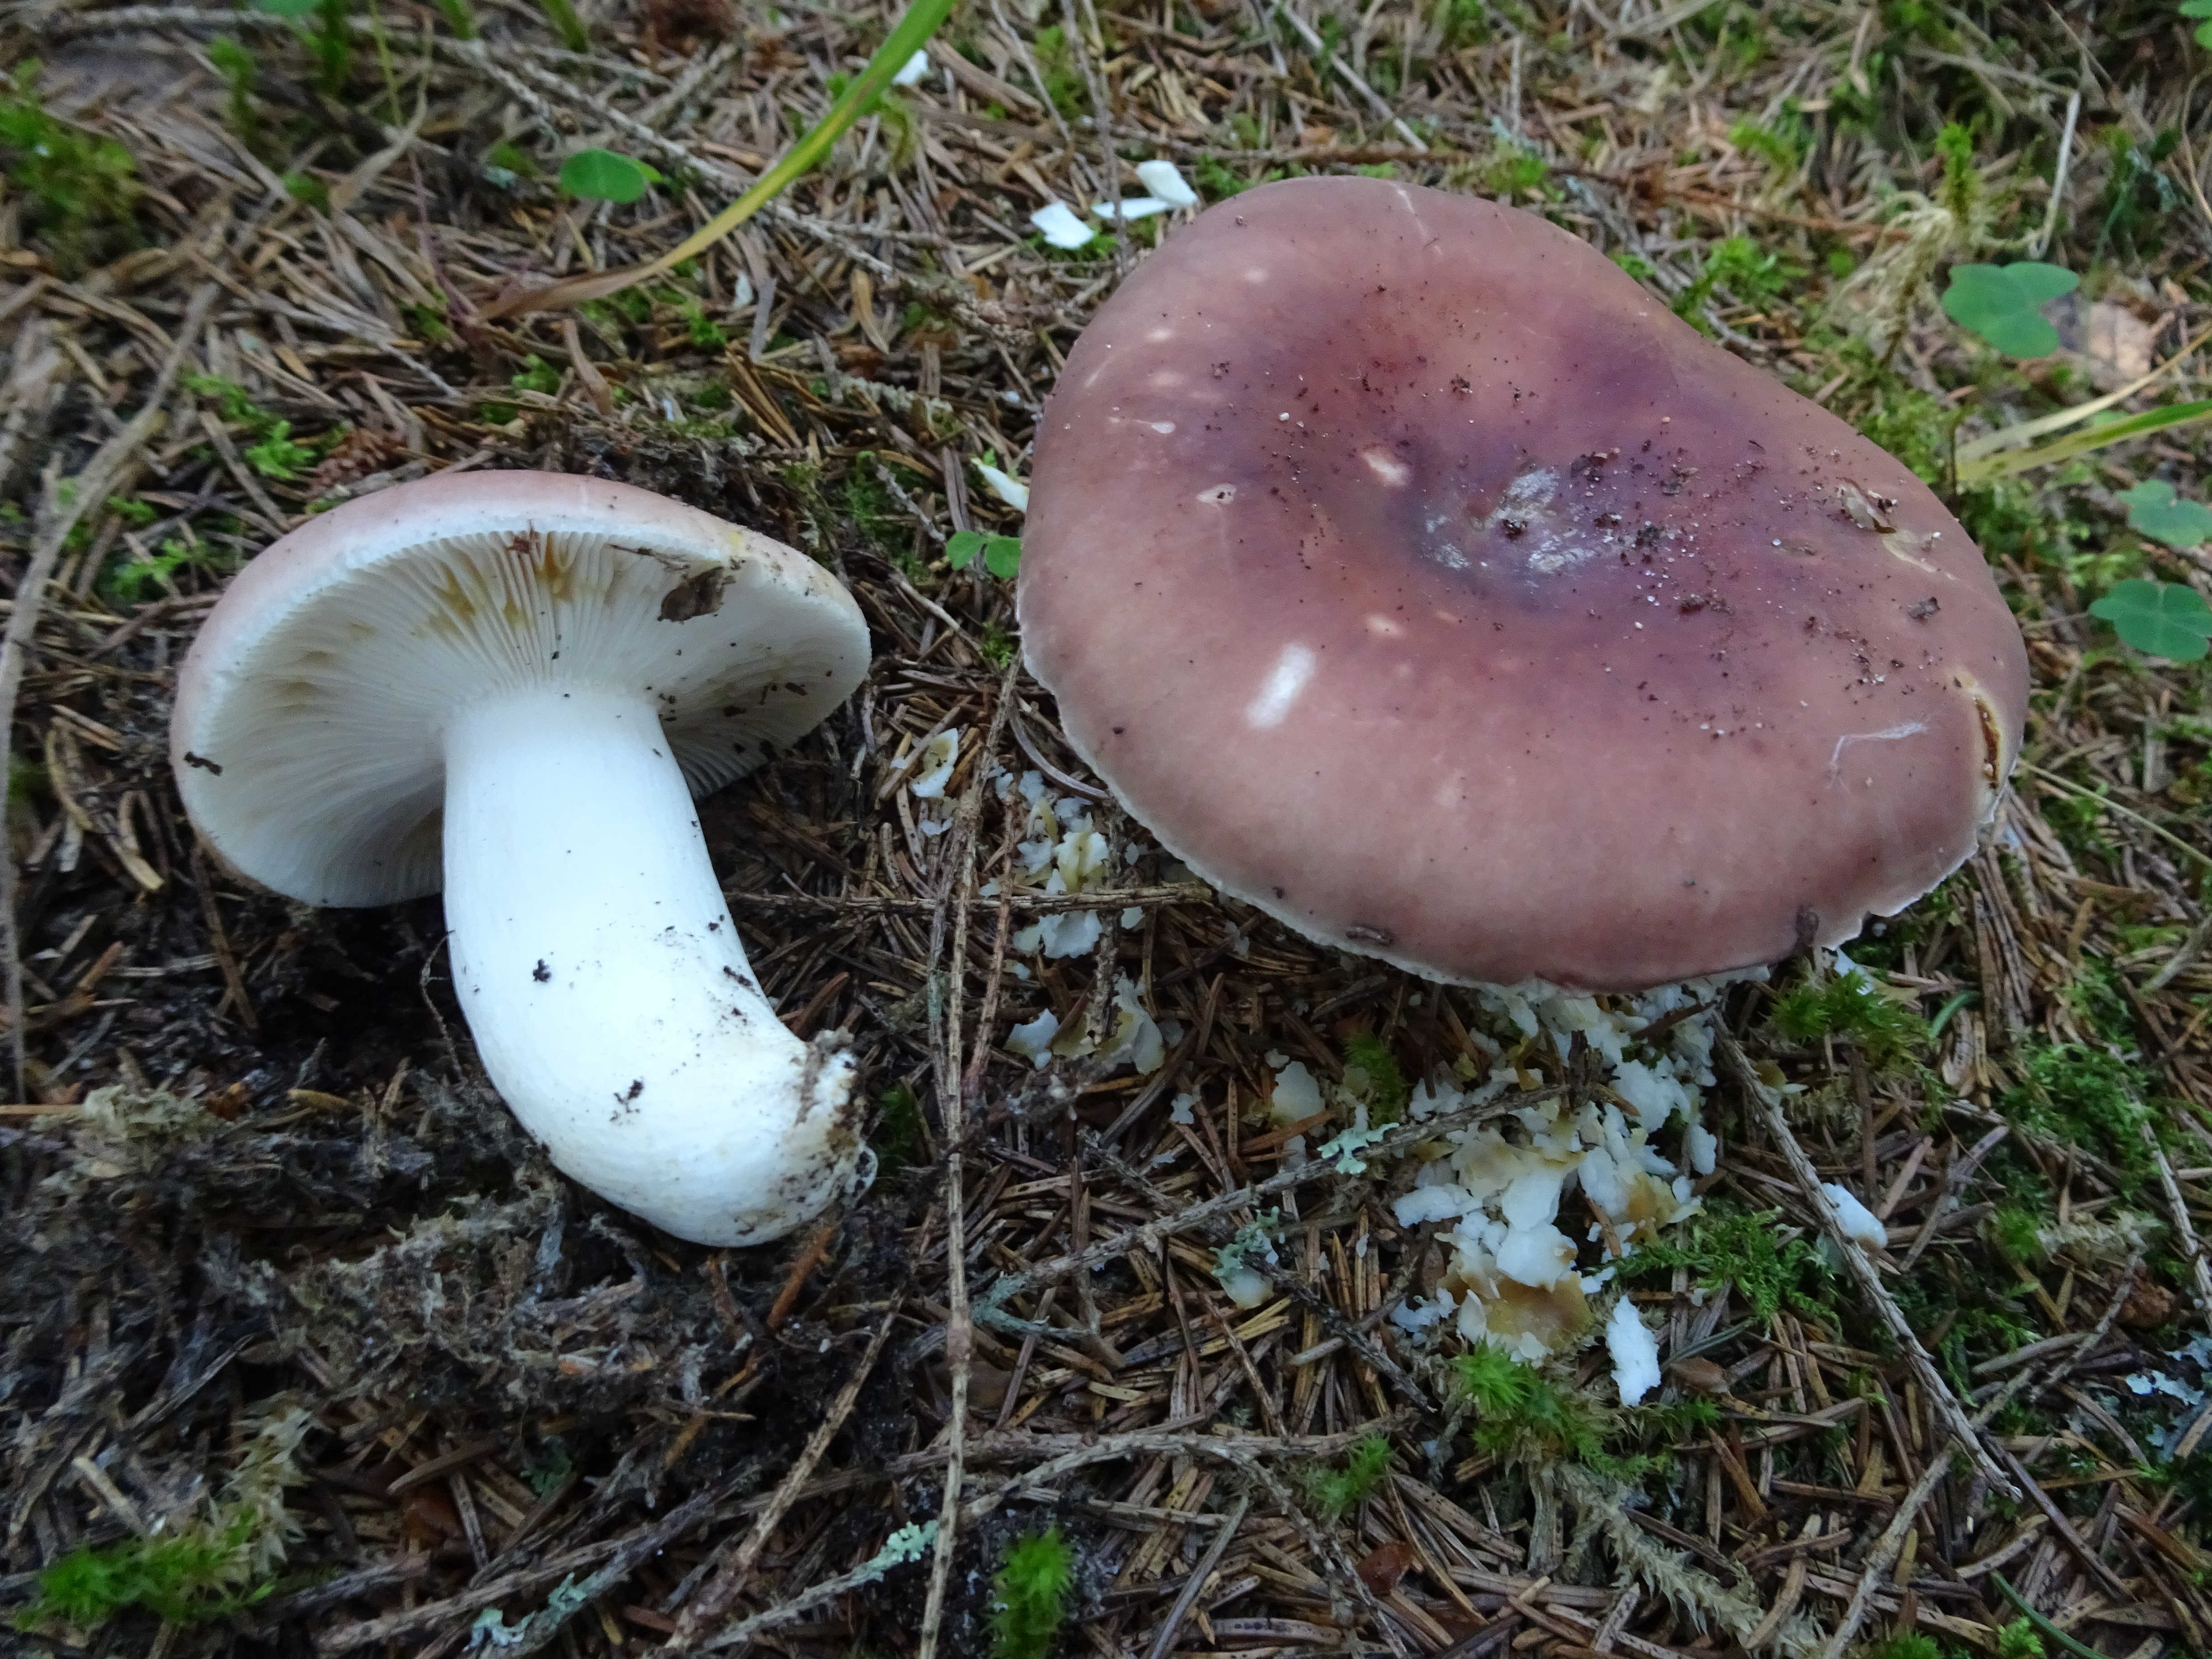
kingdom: Fungi
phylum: Basidiomycota
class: Agaricomycetes
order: Russulales
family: Russulaceae
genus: Russula
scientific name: Russula vesca
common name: Bare-toothed russula
